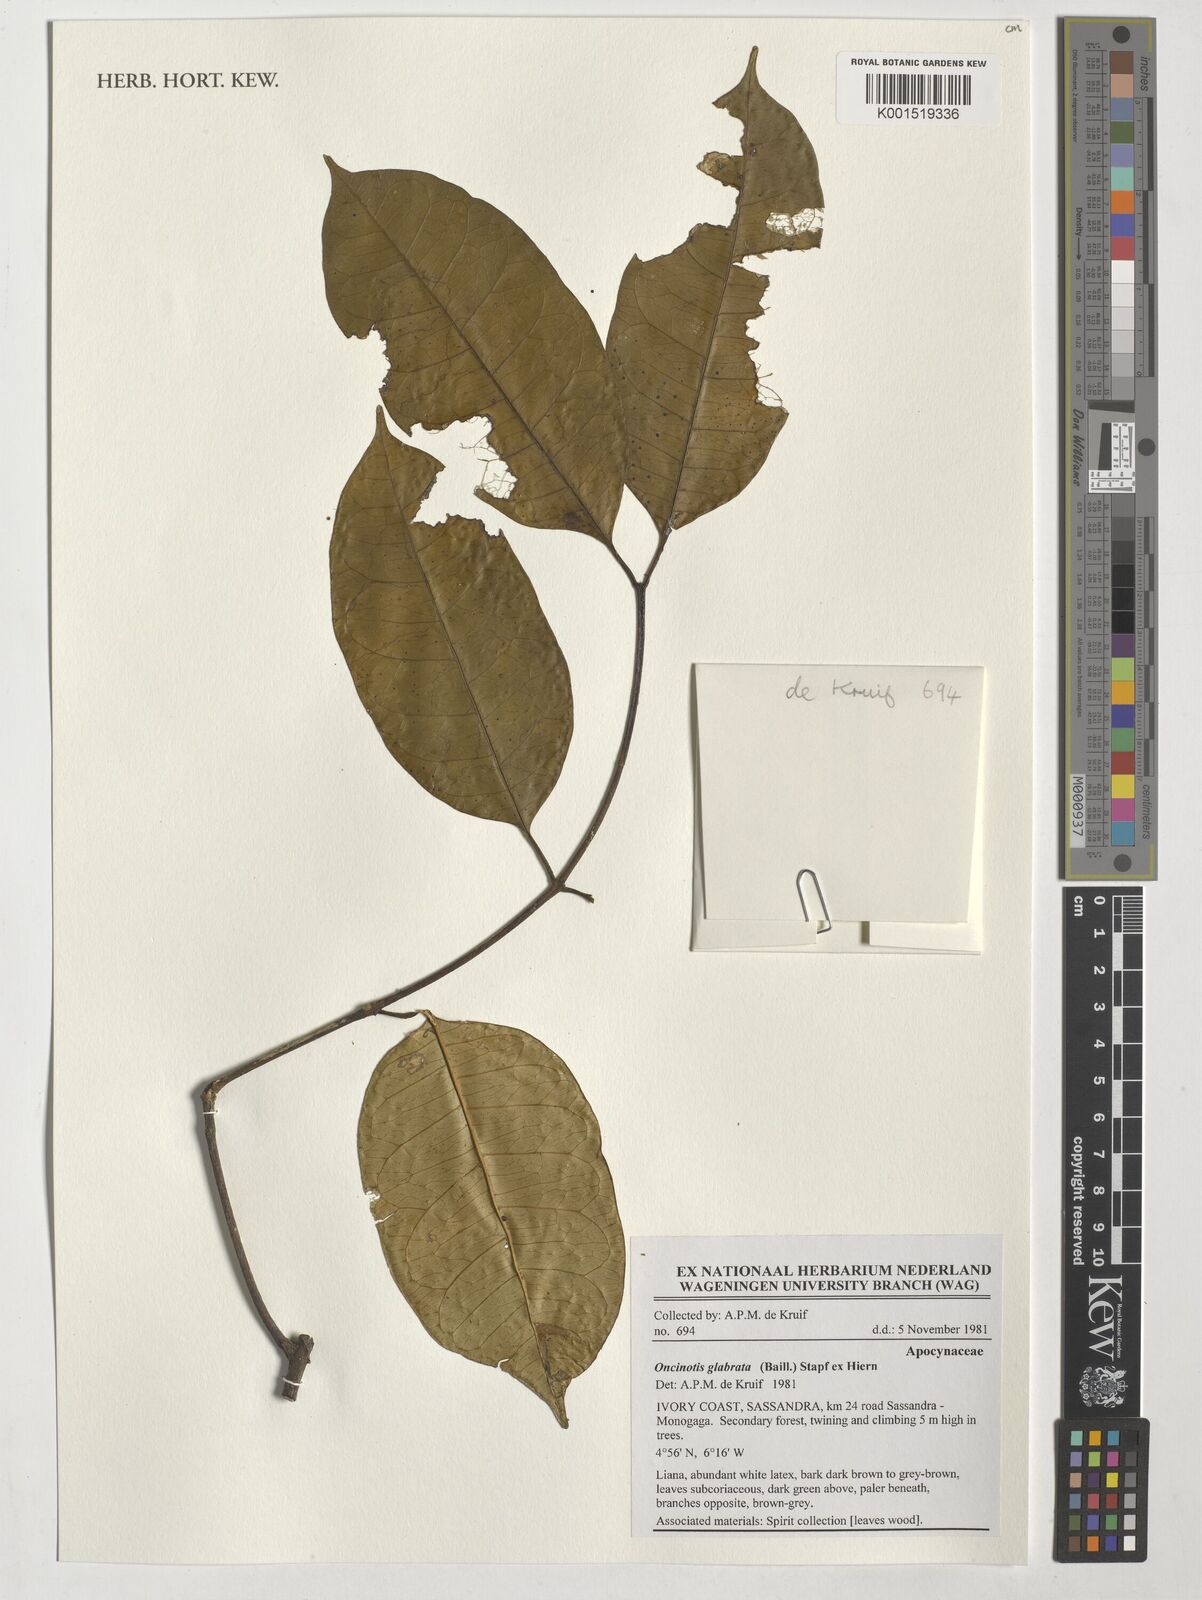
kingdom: Plantae
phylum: Tracheophyta
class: Magnoliopsida
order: Gentianales
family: Apocynaceae
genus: Oncinotis
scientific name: Oncinotis glabrata
